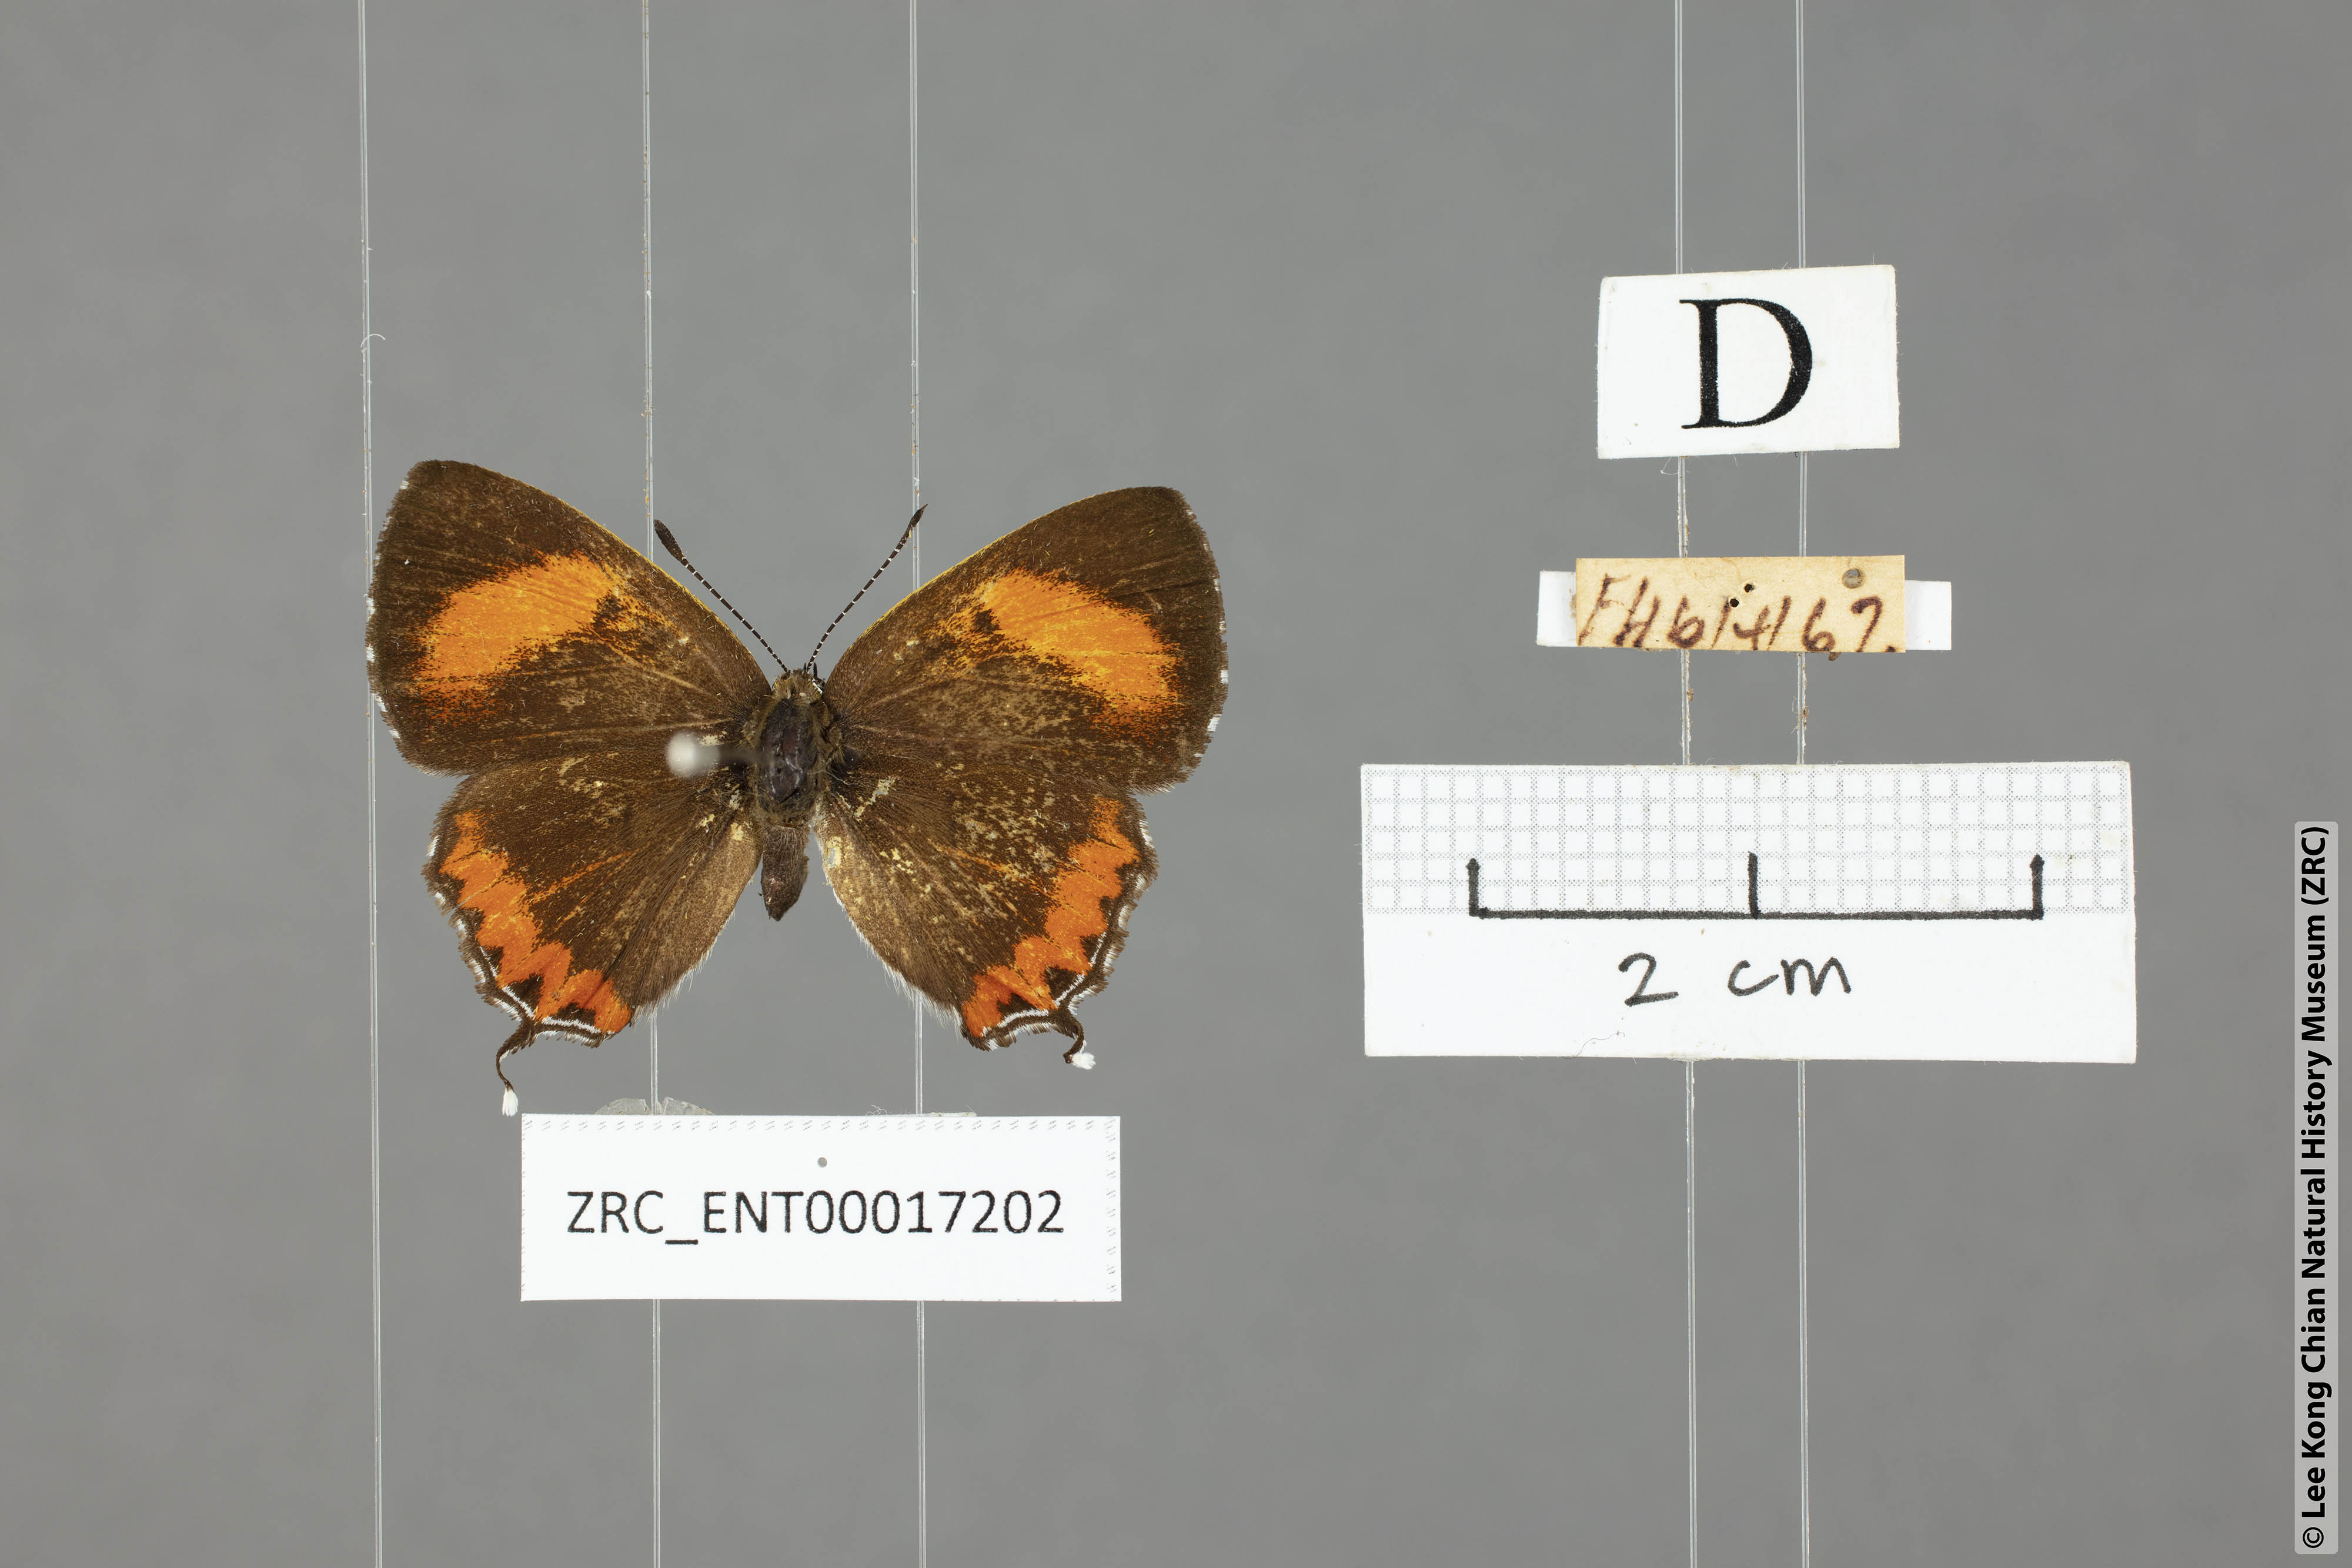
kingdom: Animalia
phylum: Arthropoda
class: Insecta
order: Lepidoptera
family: Lycaenidae
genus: Heliophorus
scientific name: Heliophorus epicles
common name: Purple sapphire
